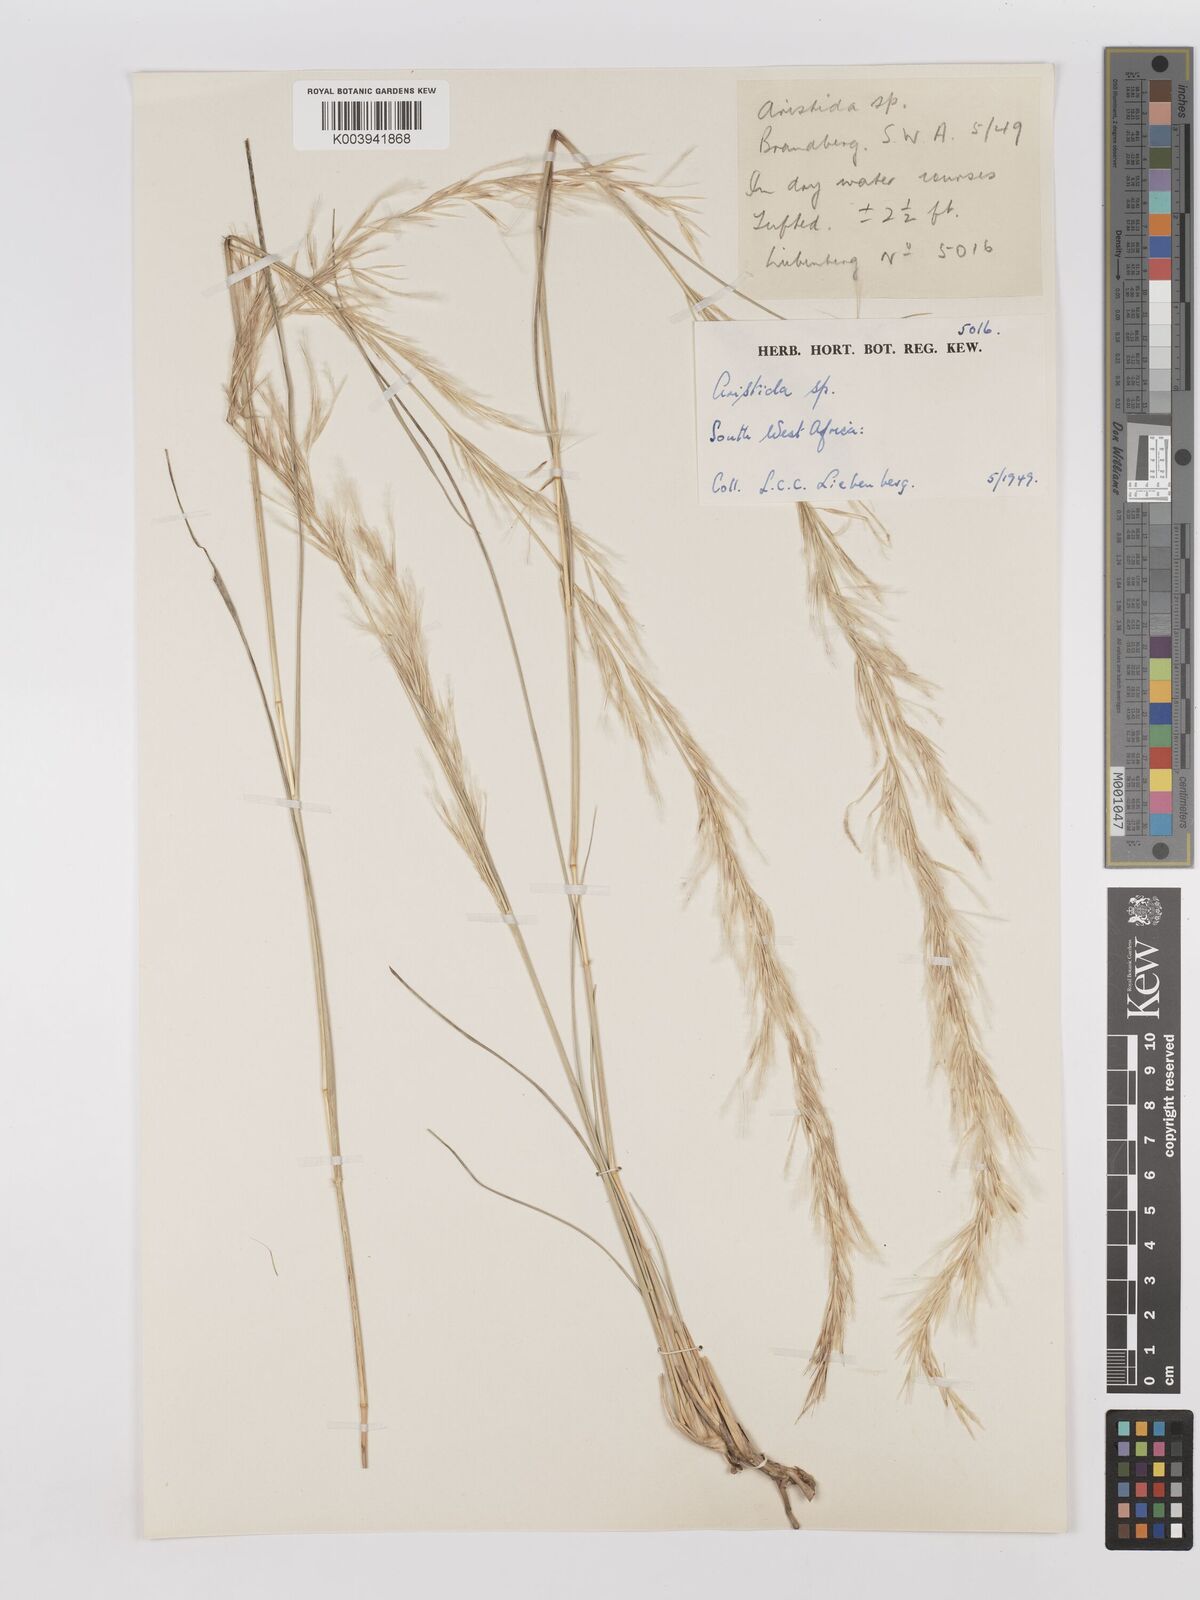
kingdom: Plantae
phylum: Tracheophyta
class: Liliopsida
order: Poales
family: Poaceae
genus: Stipagrostis
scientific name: Stipagrostis damarensis
